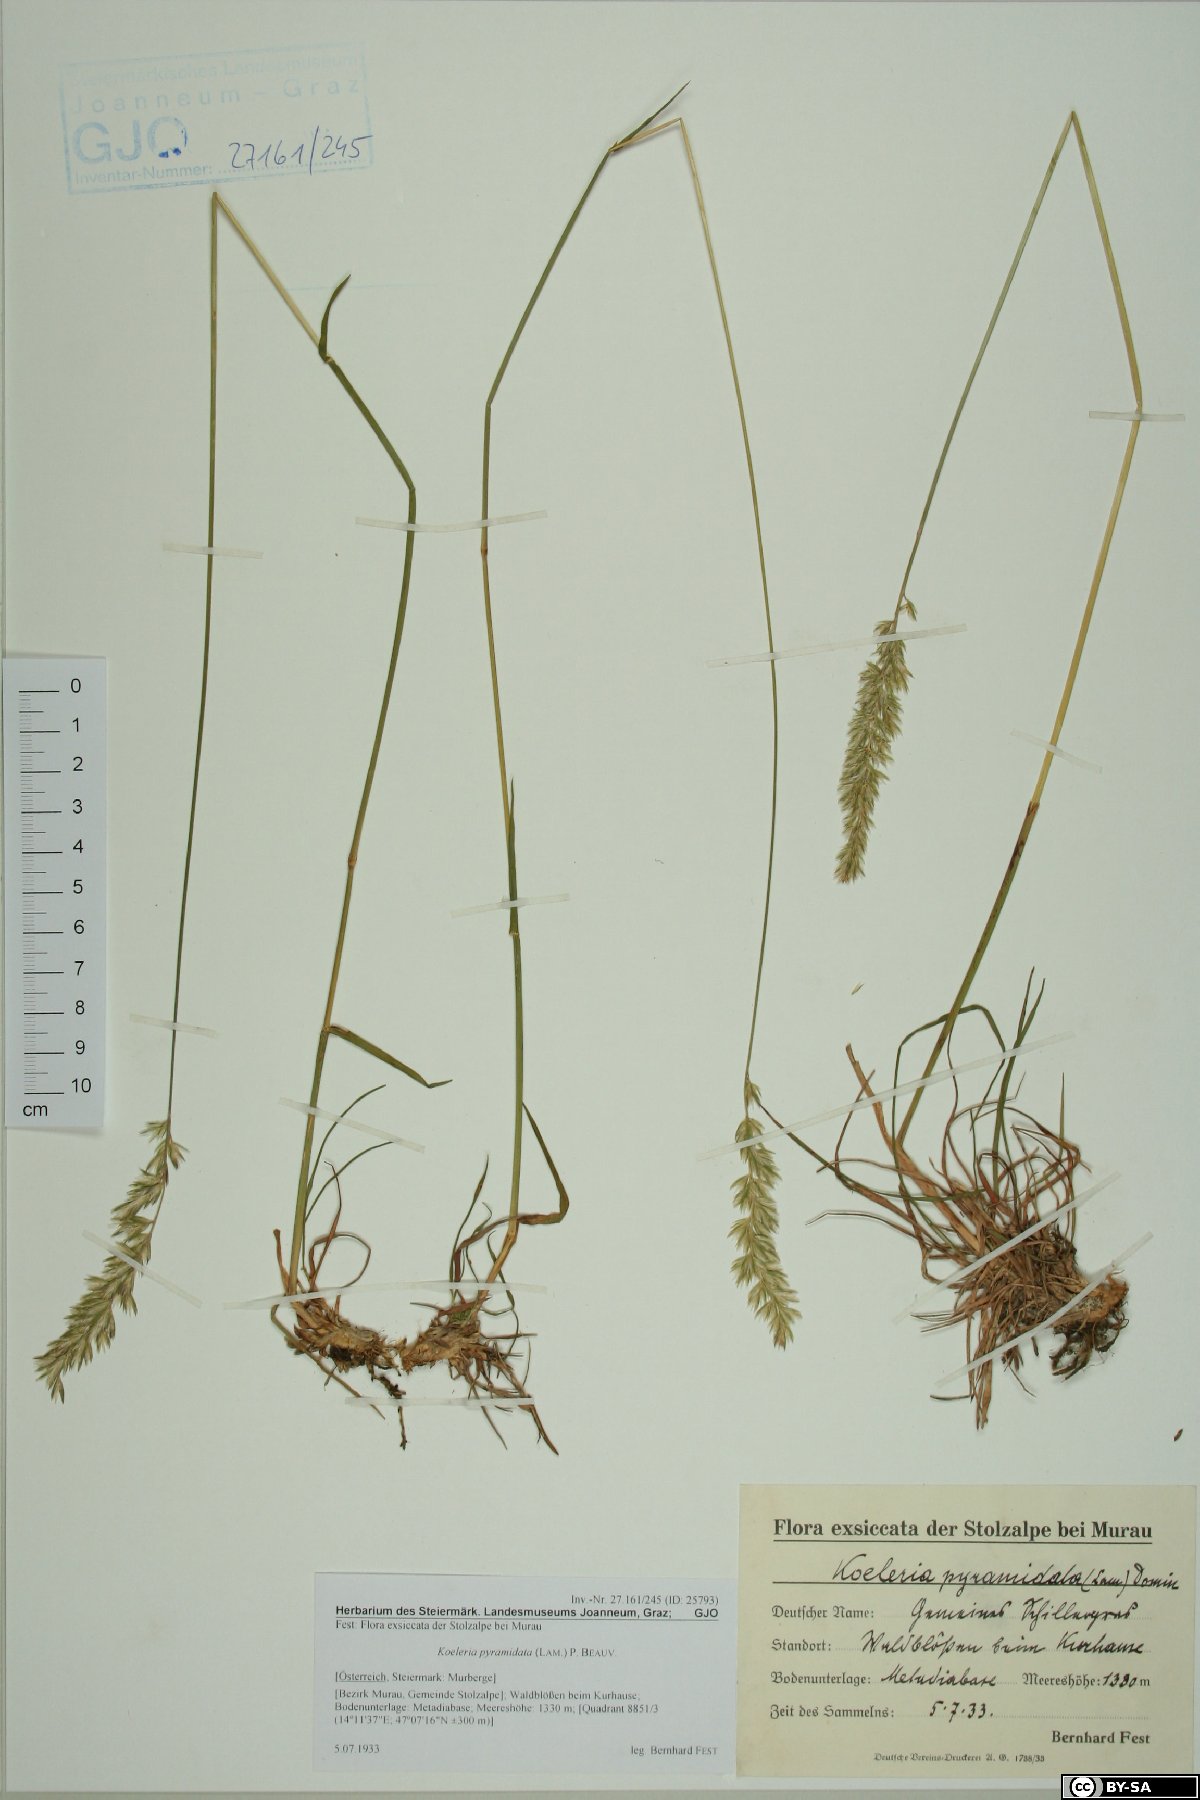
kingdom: Plantae
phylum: Tracheophyta
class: Liliopsida
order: Poales
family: Poaceae
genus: Koeleria
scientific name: Koeleria pyramidata
